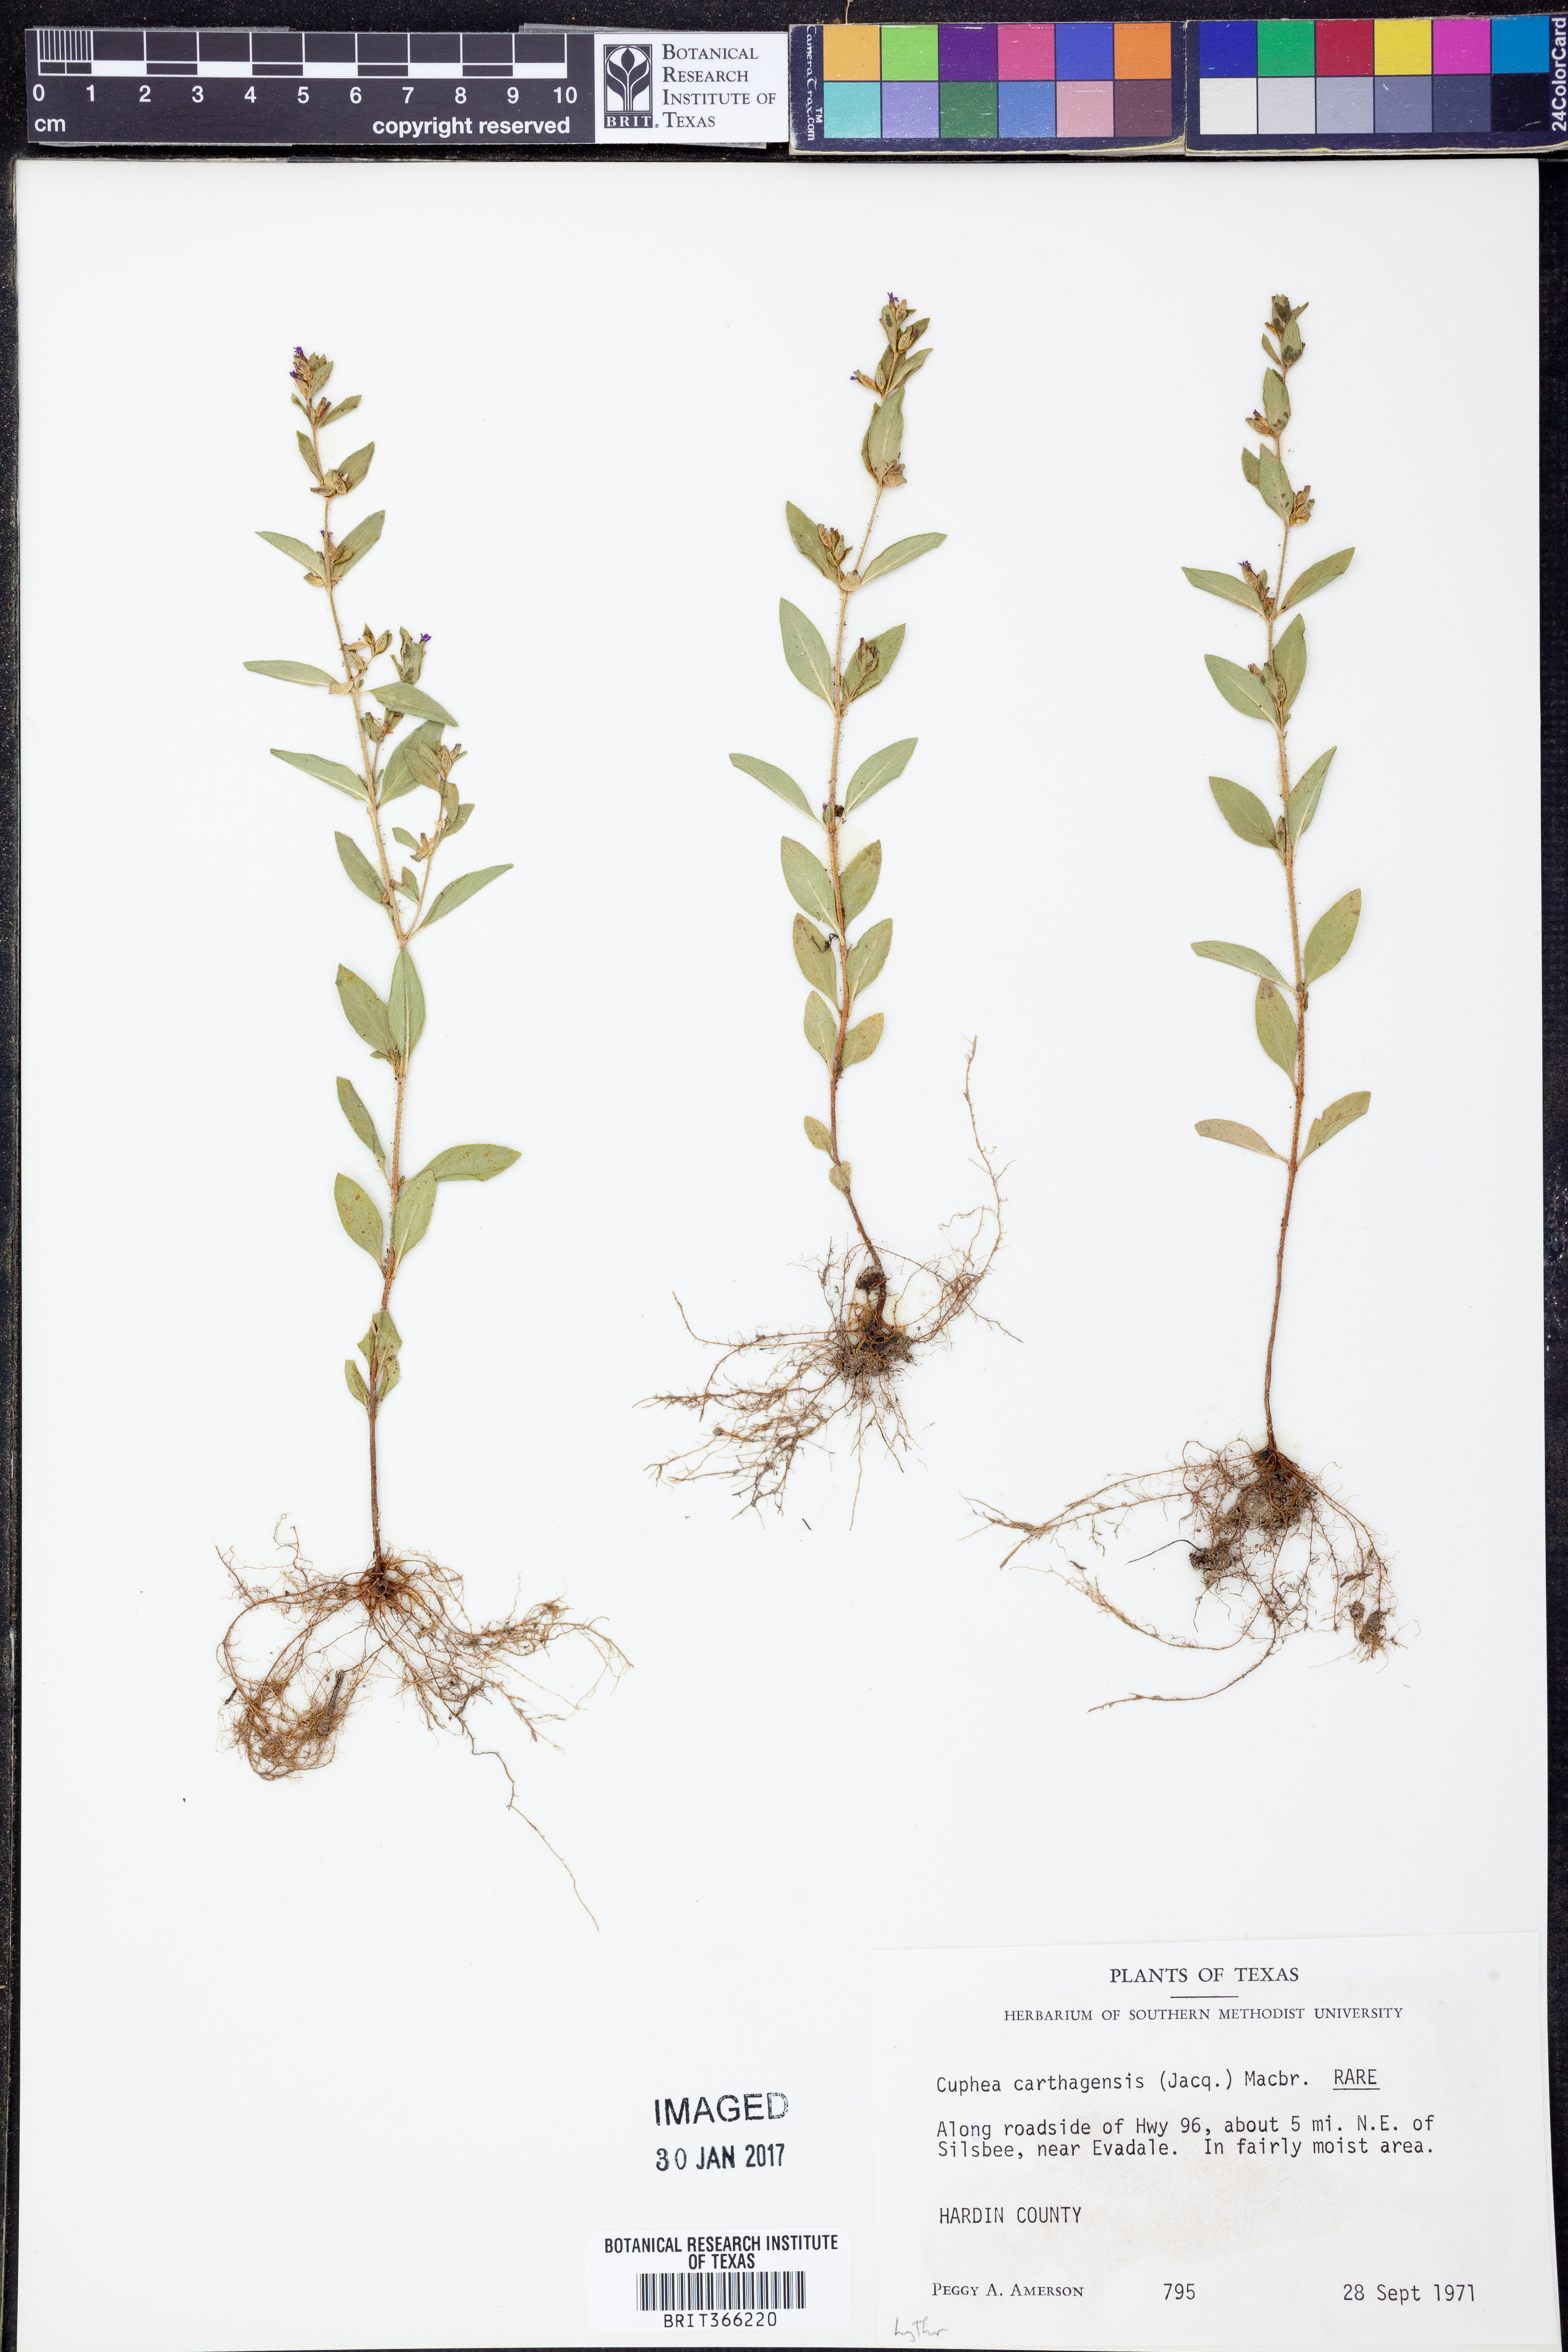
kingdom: Plantae
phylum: Tracheophyta
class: Magnoliopsida
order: Myrtales
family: Lythraceae
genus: Cuphea
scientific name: Cuphea carthagenensis
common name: Colombian waxweed
